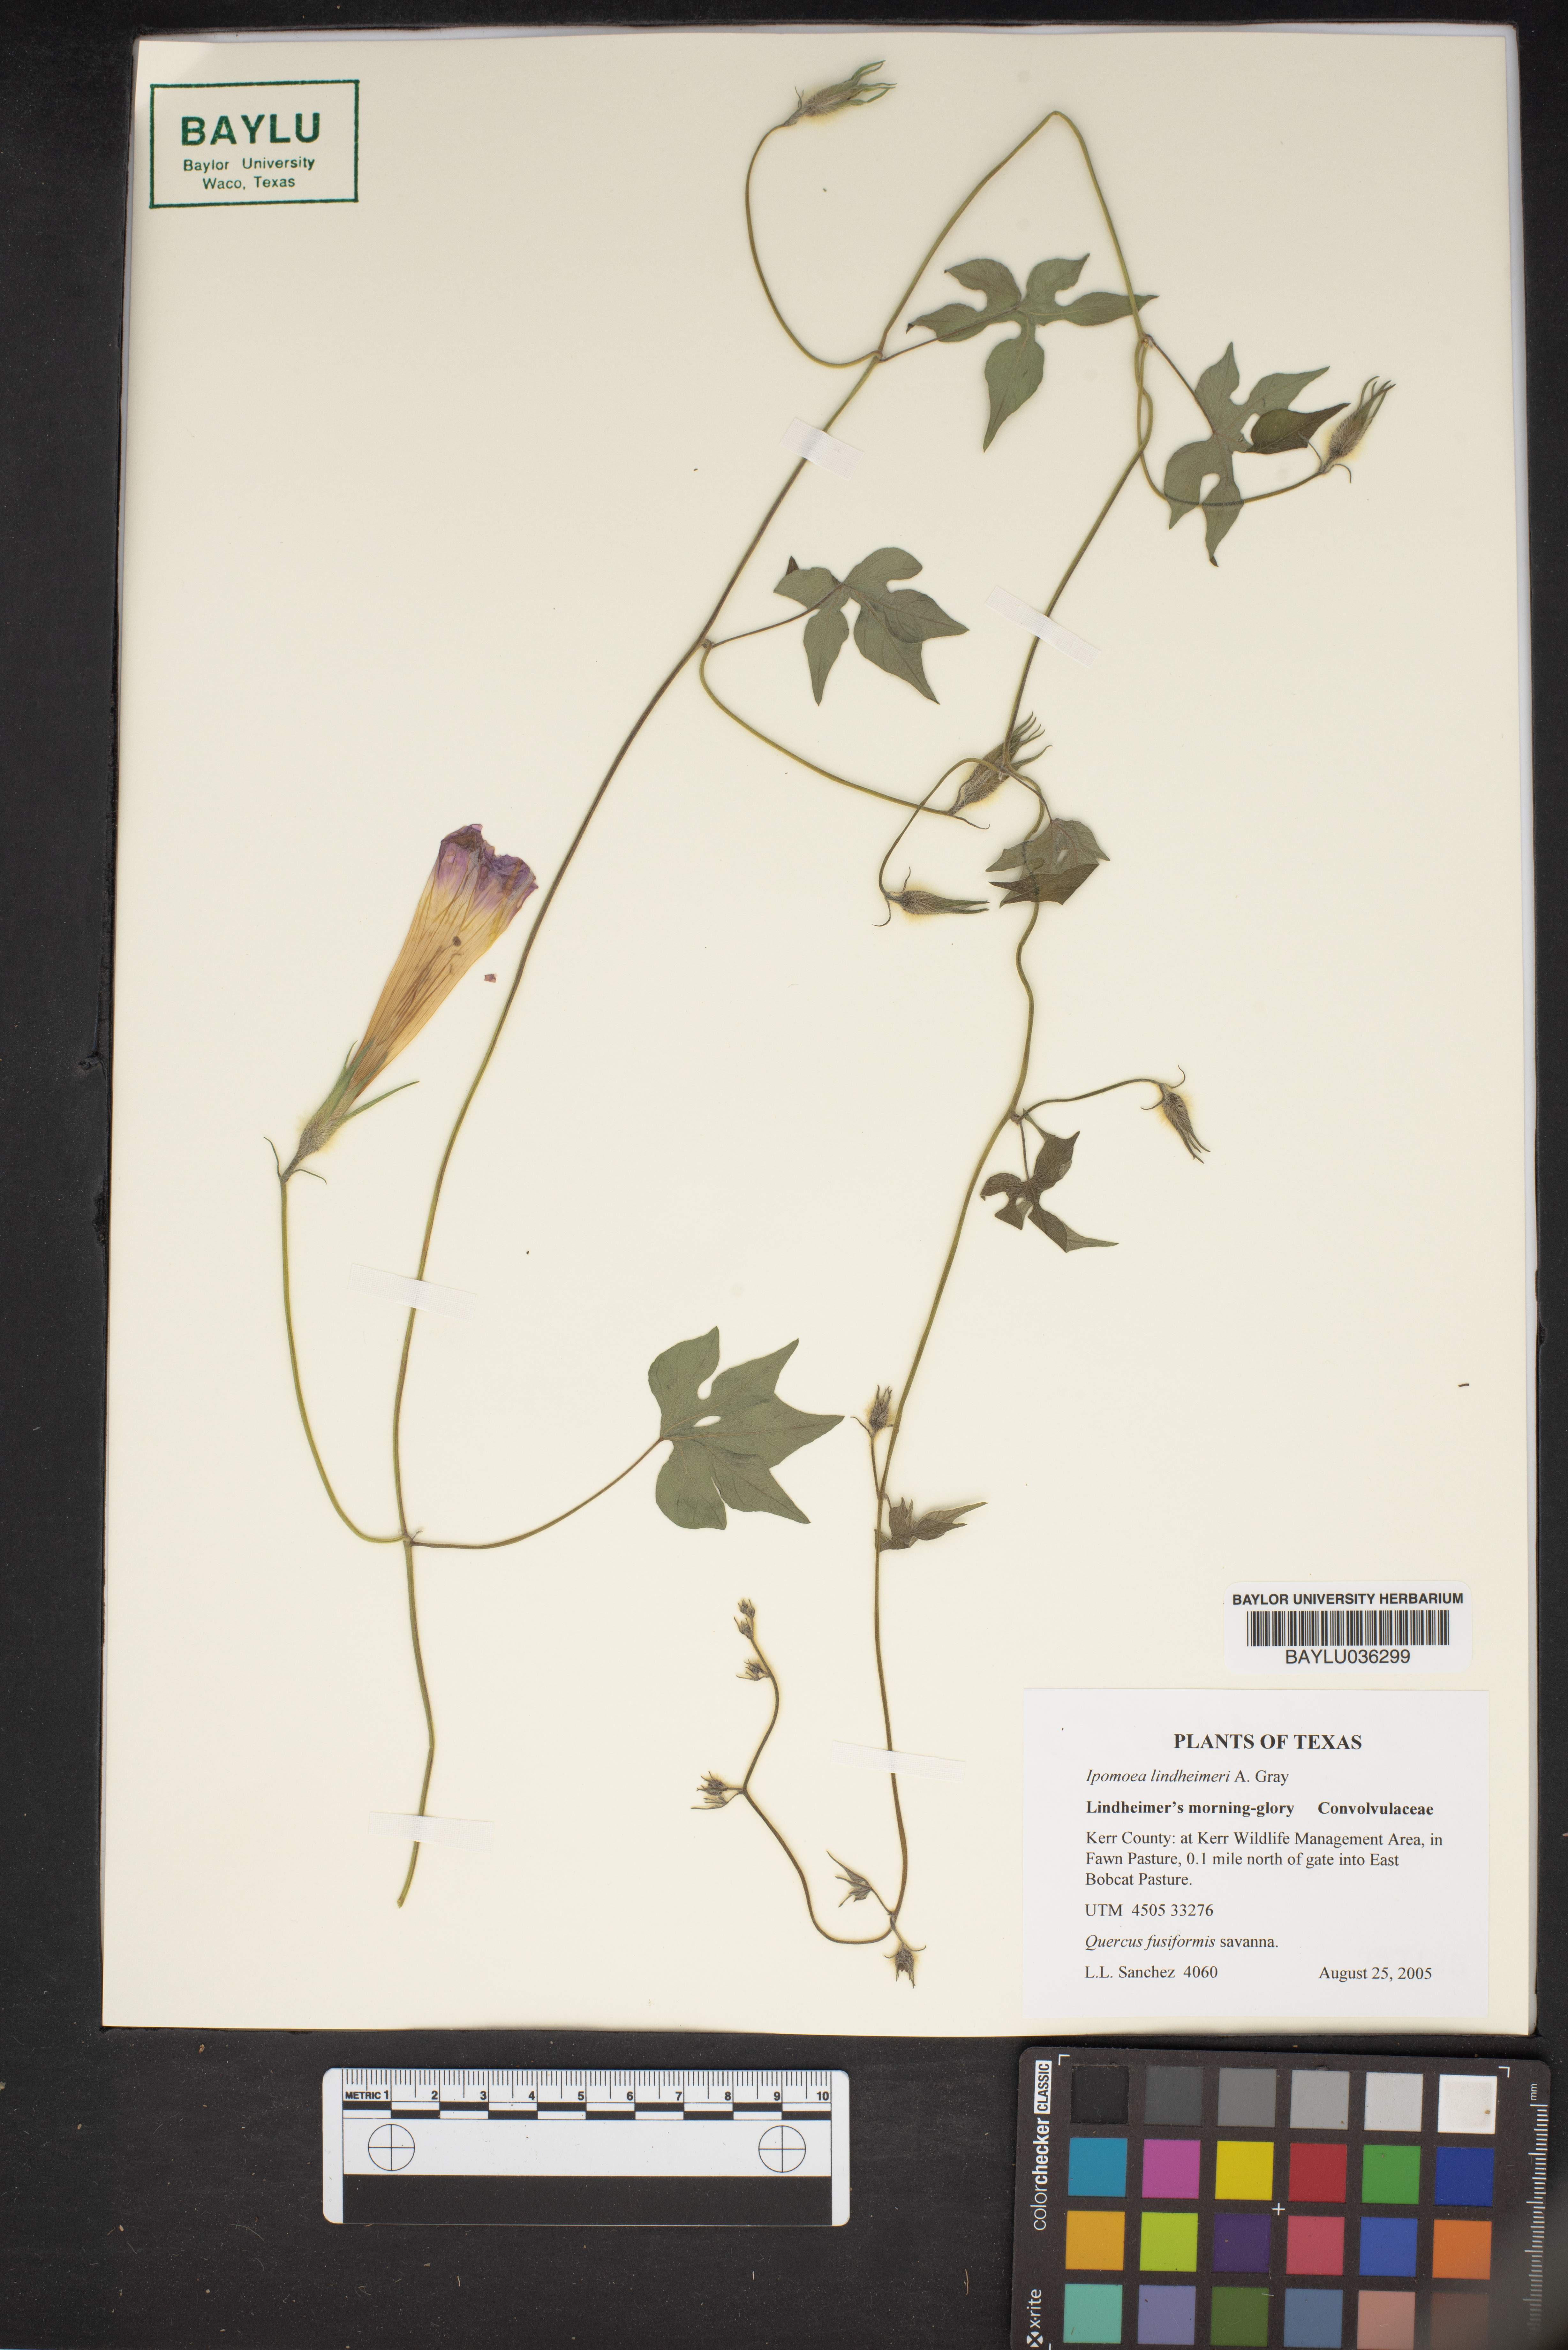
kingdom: Plantae
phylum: Tracheophyta
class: Magnoliopsida
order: Solanales
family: Convolvulaceae
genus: Ipomoea
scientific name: Ipomoea lindheimeri
